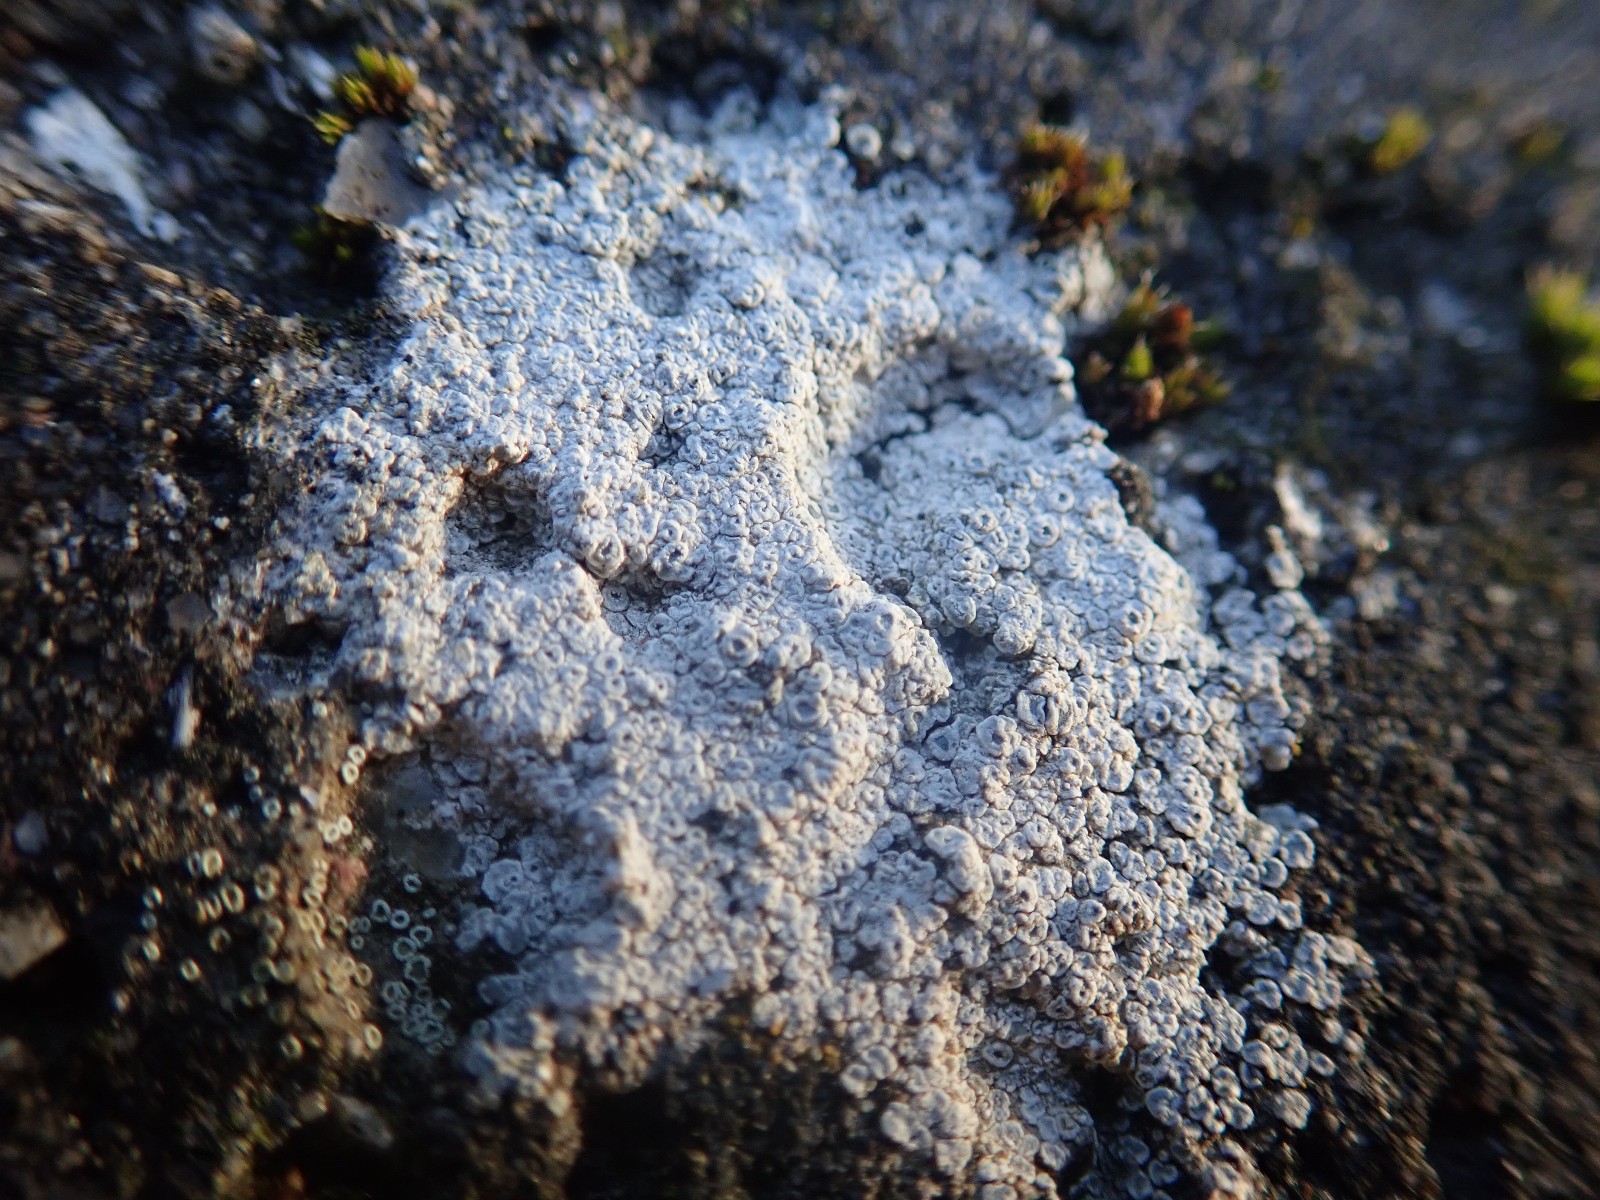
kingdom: Fungi
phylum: Ascomycota
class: Lecanoromycetes
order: Pertusariales
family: Megasporaceae
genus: Circinaria
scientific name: Circinaria contorta
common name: indviklet hulskivelav
